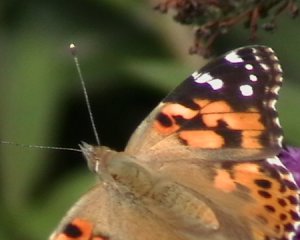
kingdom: Animalia
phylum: Arthropoda
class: Insecta
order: Lepidoptera
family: Nymphalidae
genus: Vanessa
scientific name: Vanessa cardui
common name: Painted Lady
